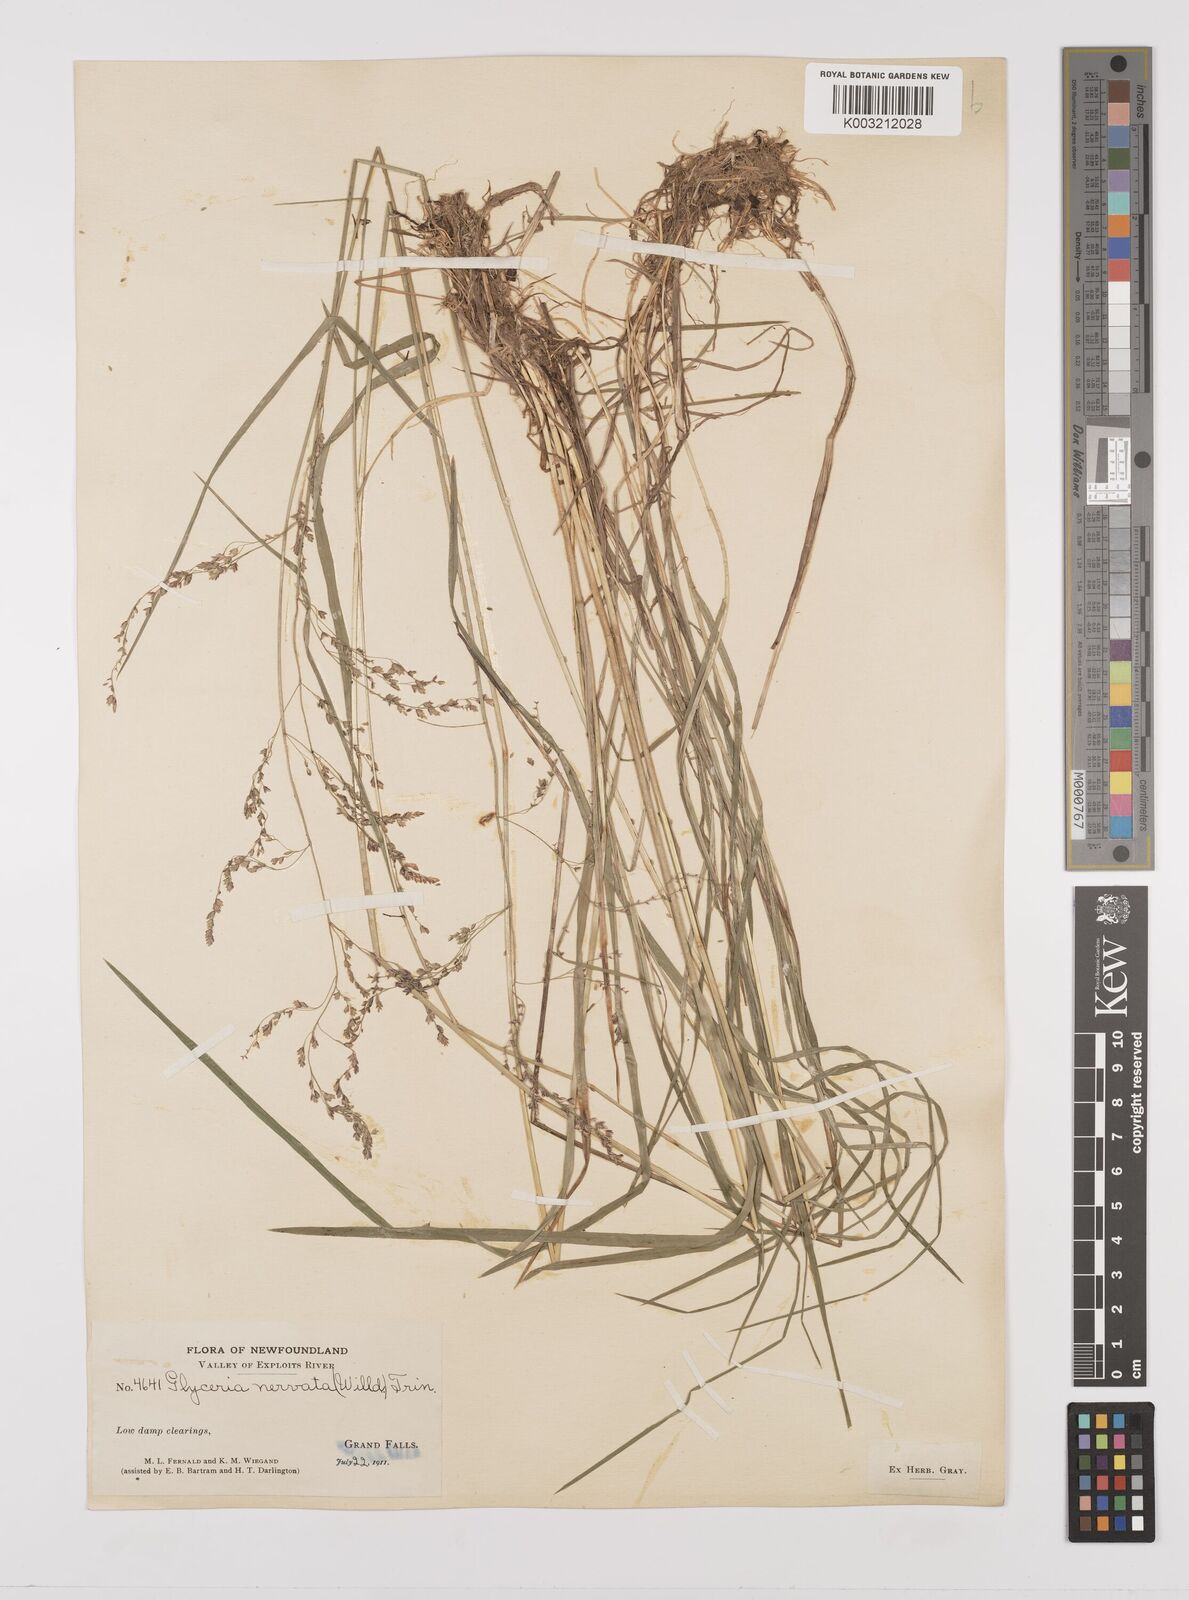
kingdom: Plantae
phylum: Tracheophyta
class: Liliopsida
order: Poales
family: Poaceae
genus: Glyceria
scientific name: Glyceria striata
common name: Fowl manna grass
